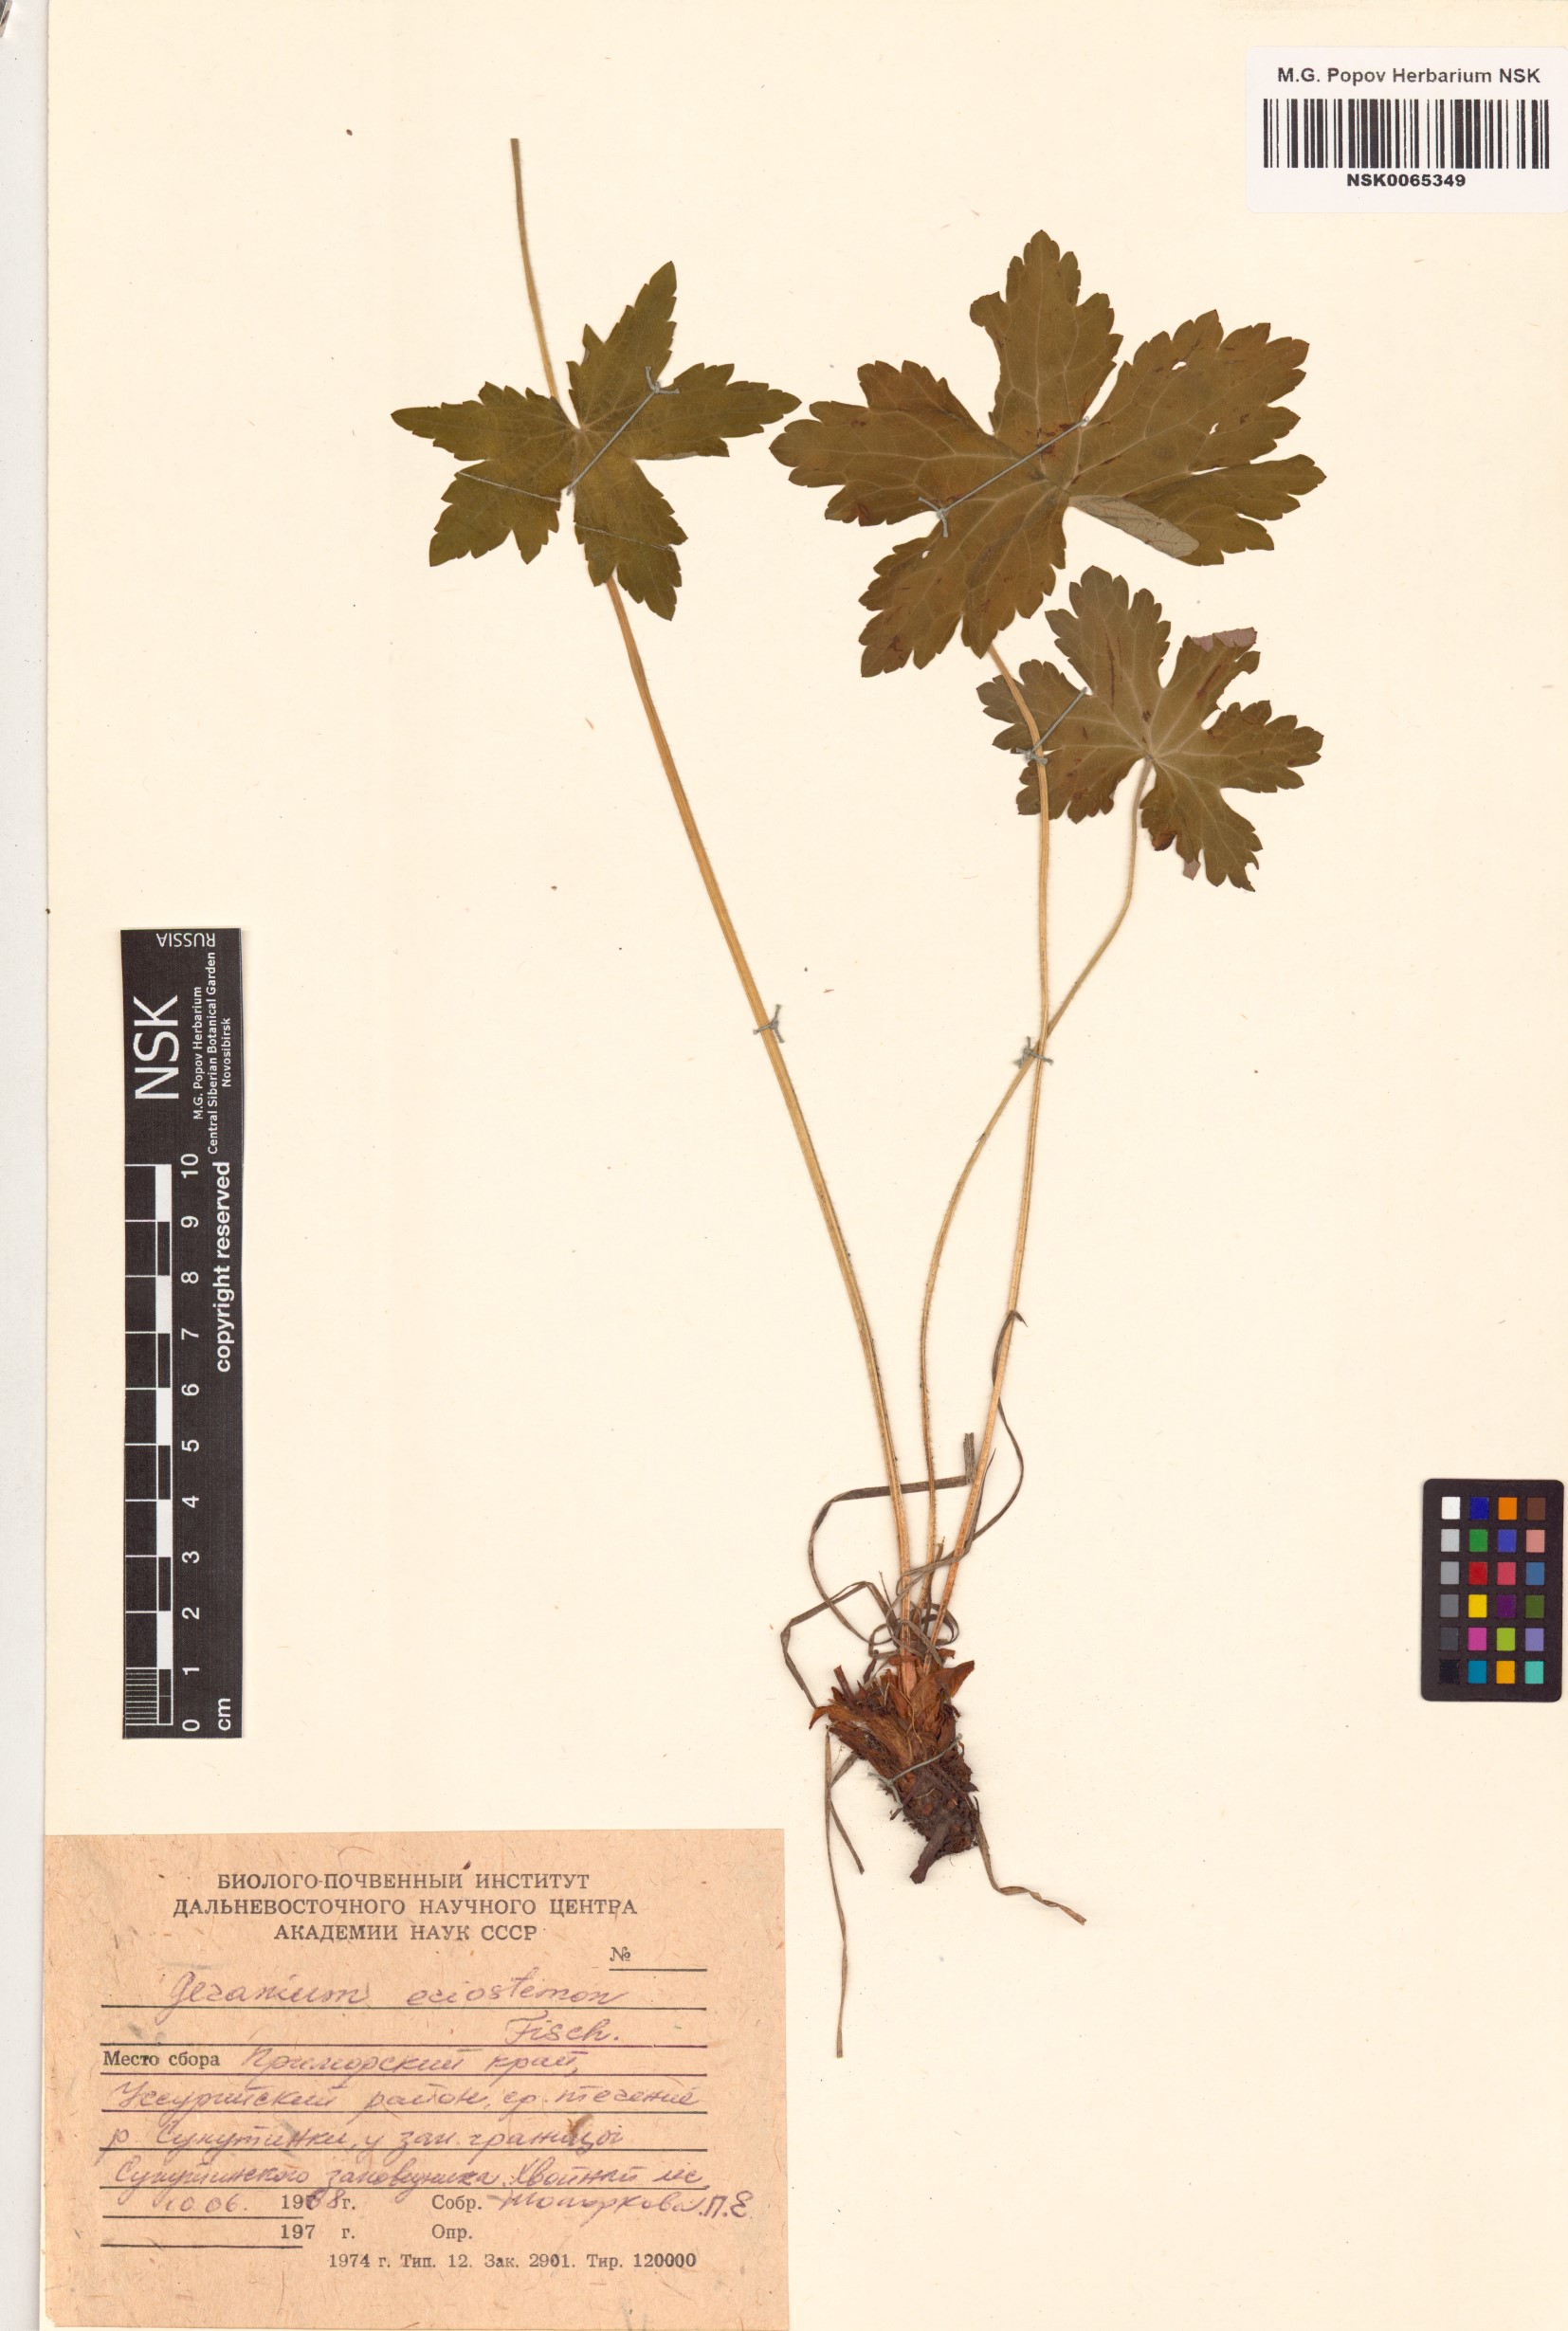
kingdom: Plantae
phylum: Tracheophyta
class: Magnoliopsida
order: Geraniales
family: Geraniaceae
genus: Geranium
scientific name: Geranium platyanthum
